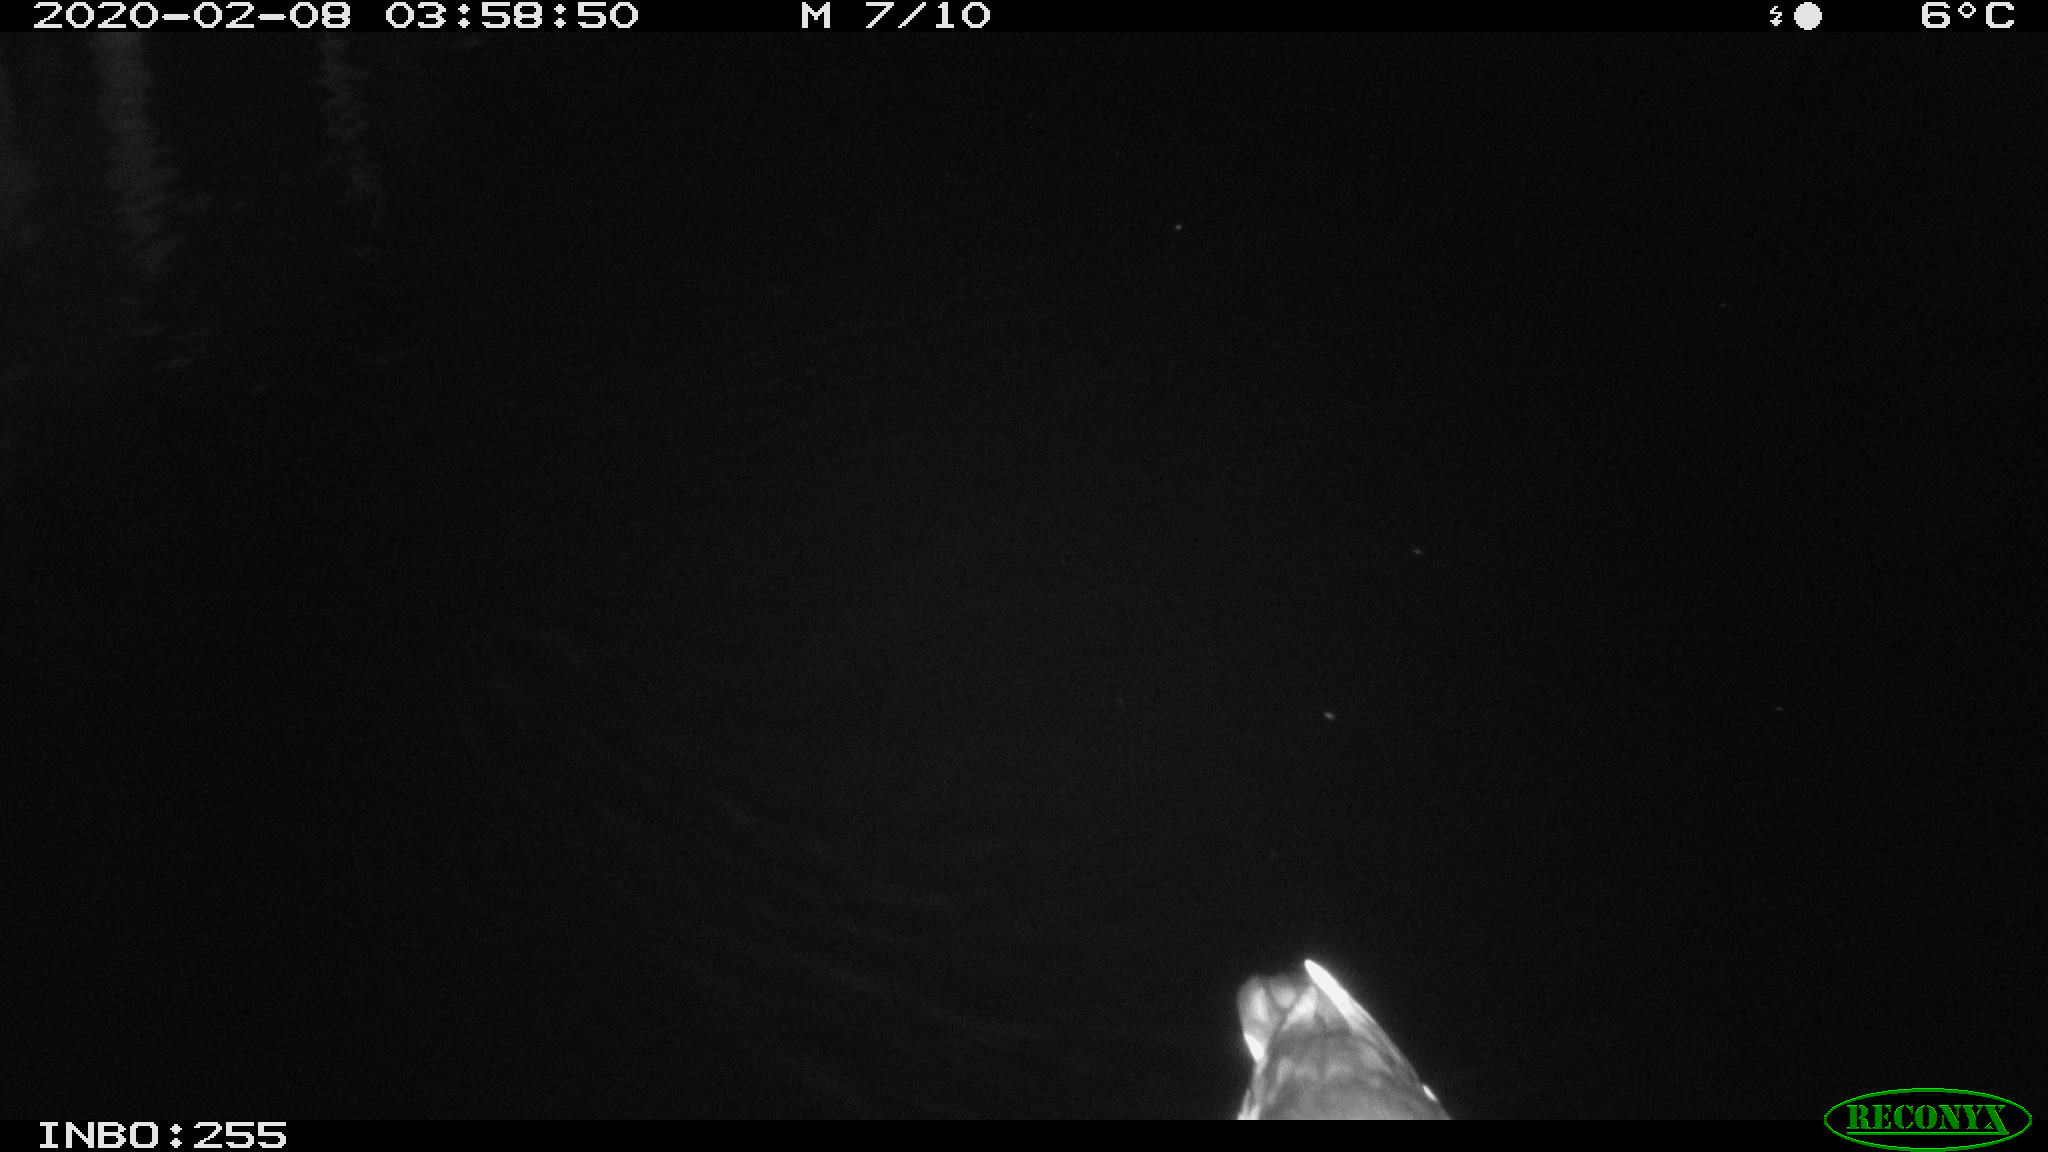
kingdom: Animalia
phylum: Chordata
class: Aves
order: Gruiformes
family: Rallidae
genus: Gallinula
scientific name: Gallinula chloropus
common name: Common moorhen
